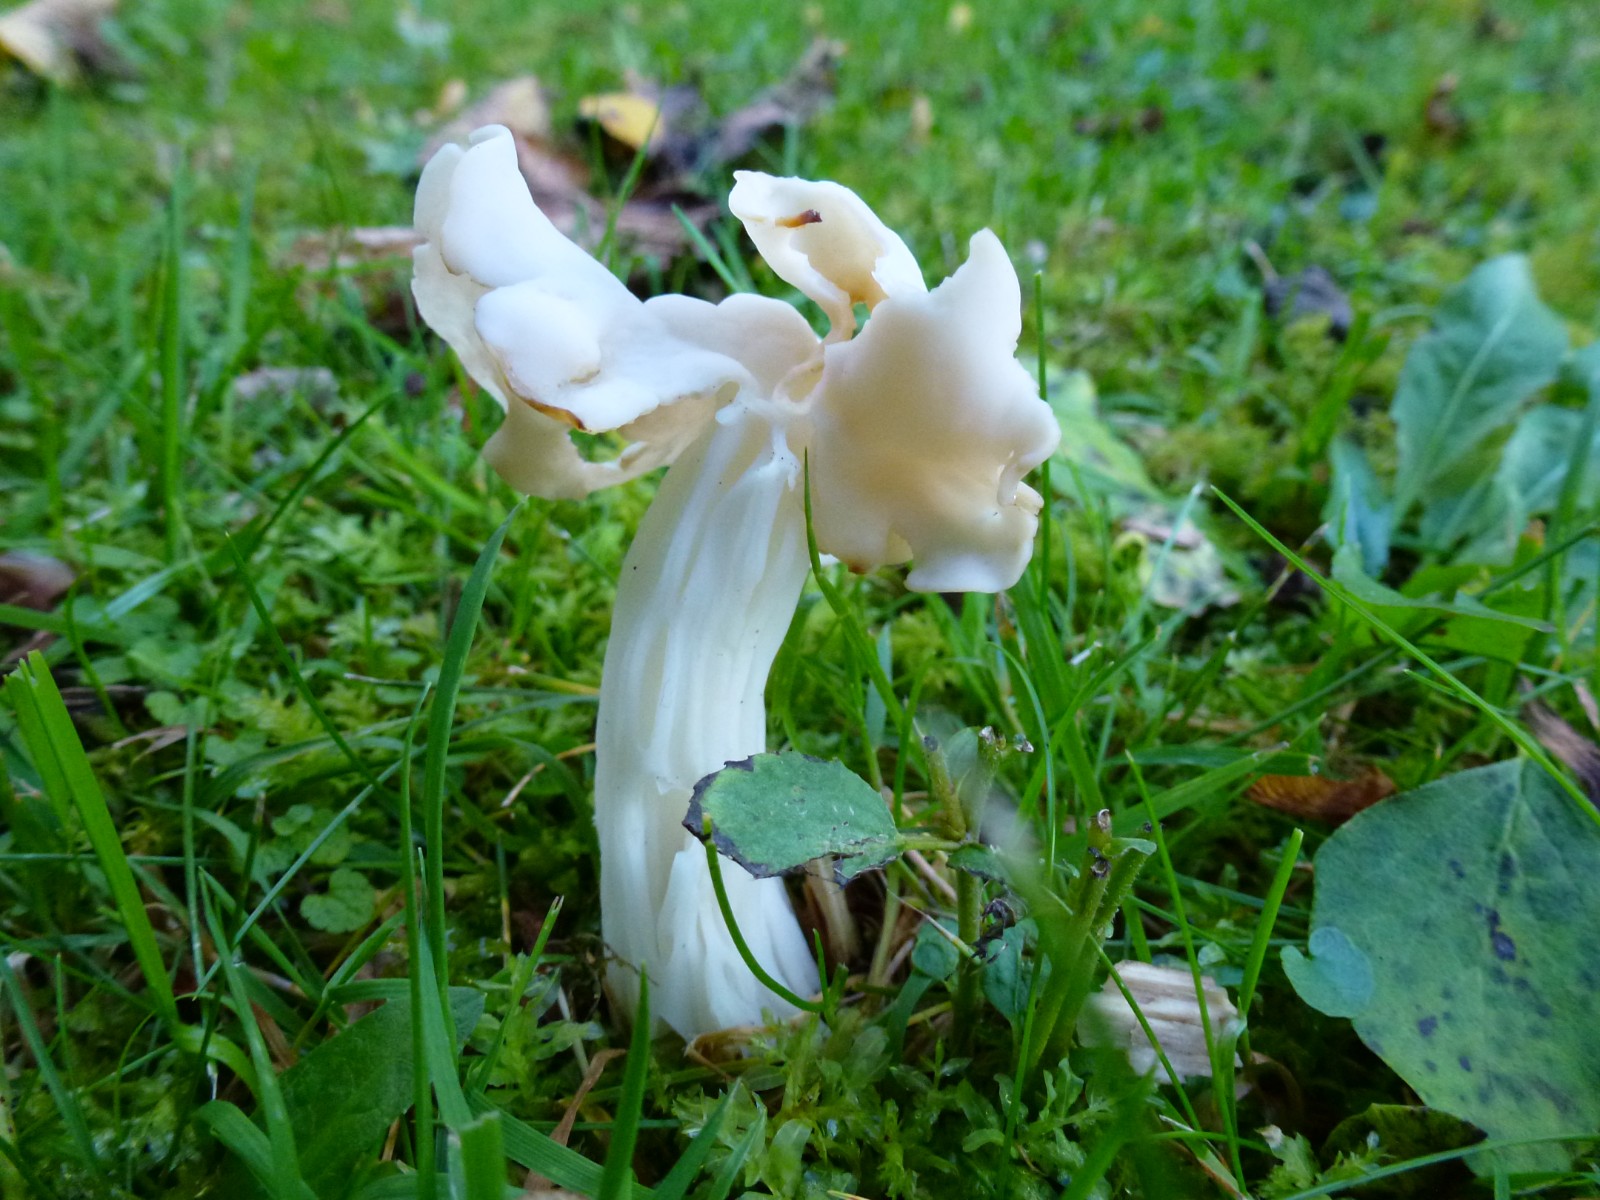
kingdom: Fungi
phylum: Ascomycota
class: Pezizomycetes
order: Pezizales
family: Helvellaceae
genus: Helvella
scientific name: Helvella crispa
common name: kruset foldhat
